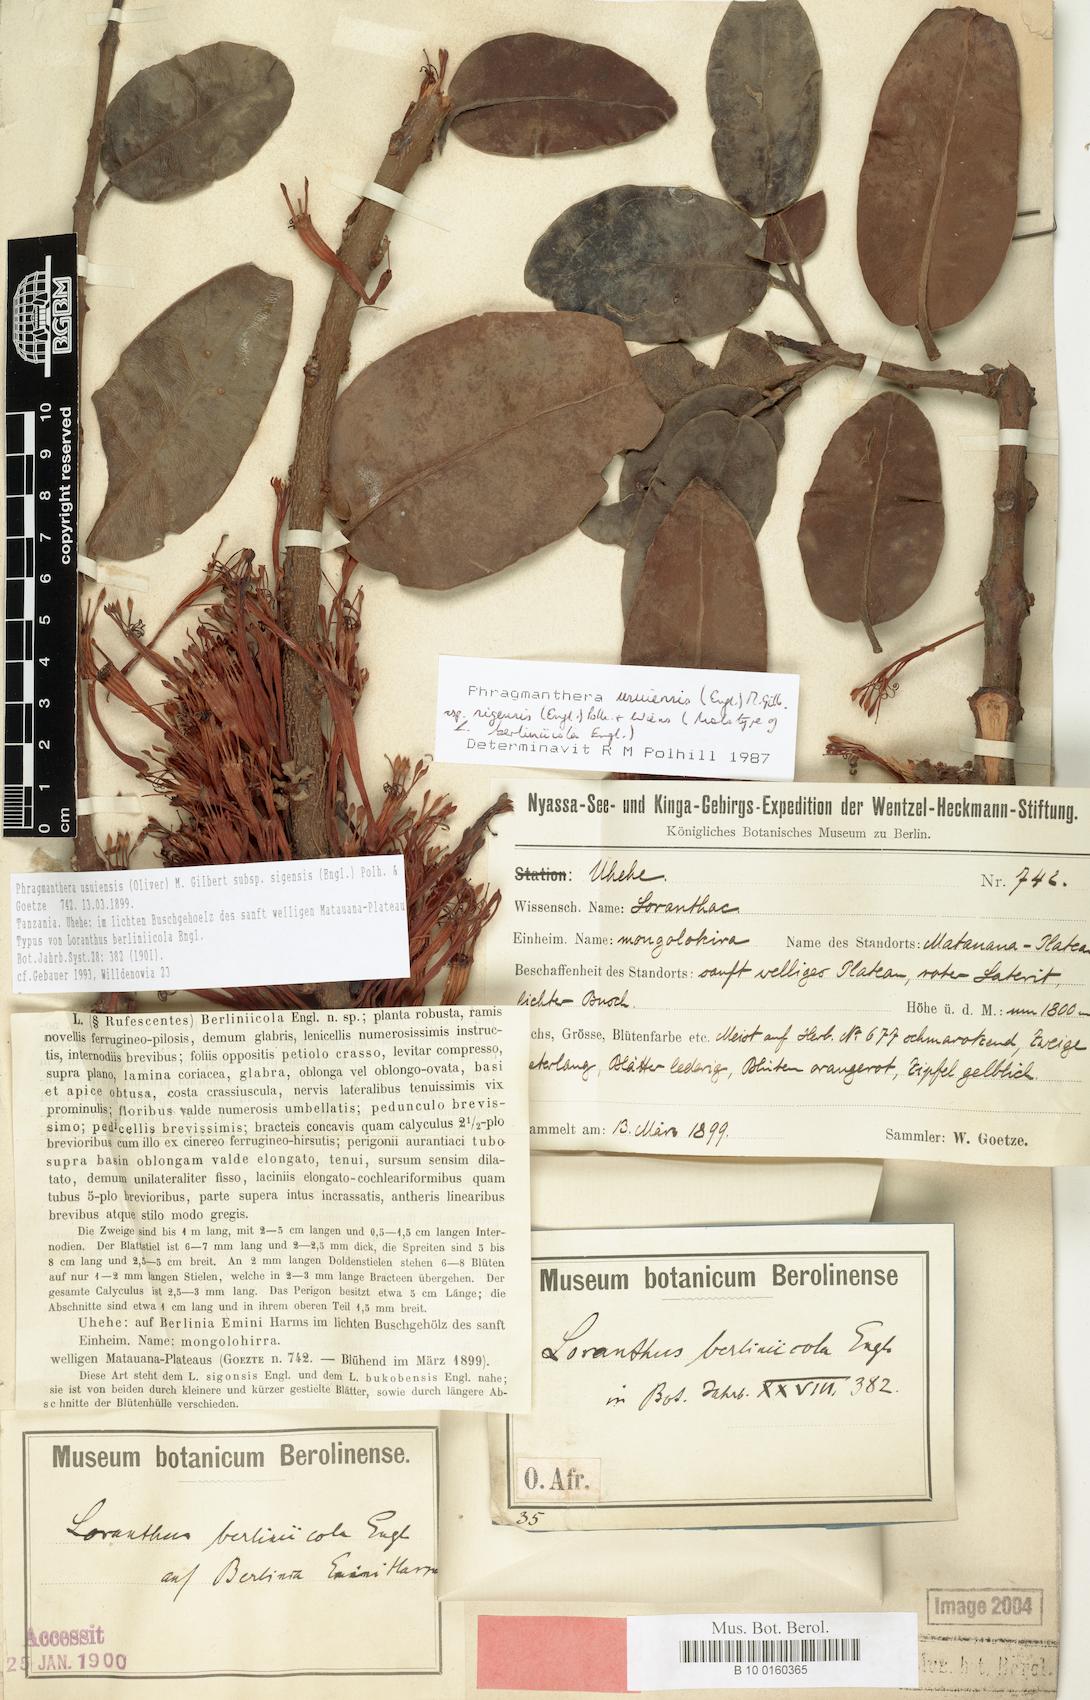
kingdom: Plantae
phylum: Tracheophyta
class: Magnoliopsida
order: Santalales
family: Loranthaceae
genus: Phragmanthera
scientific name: Phragmanthera usuiensis
